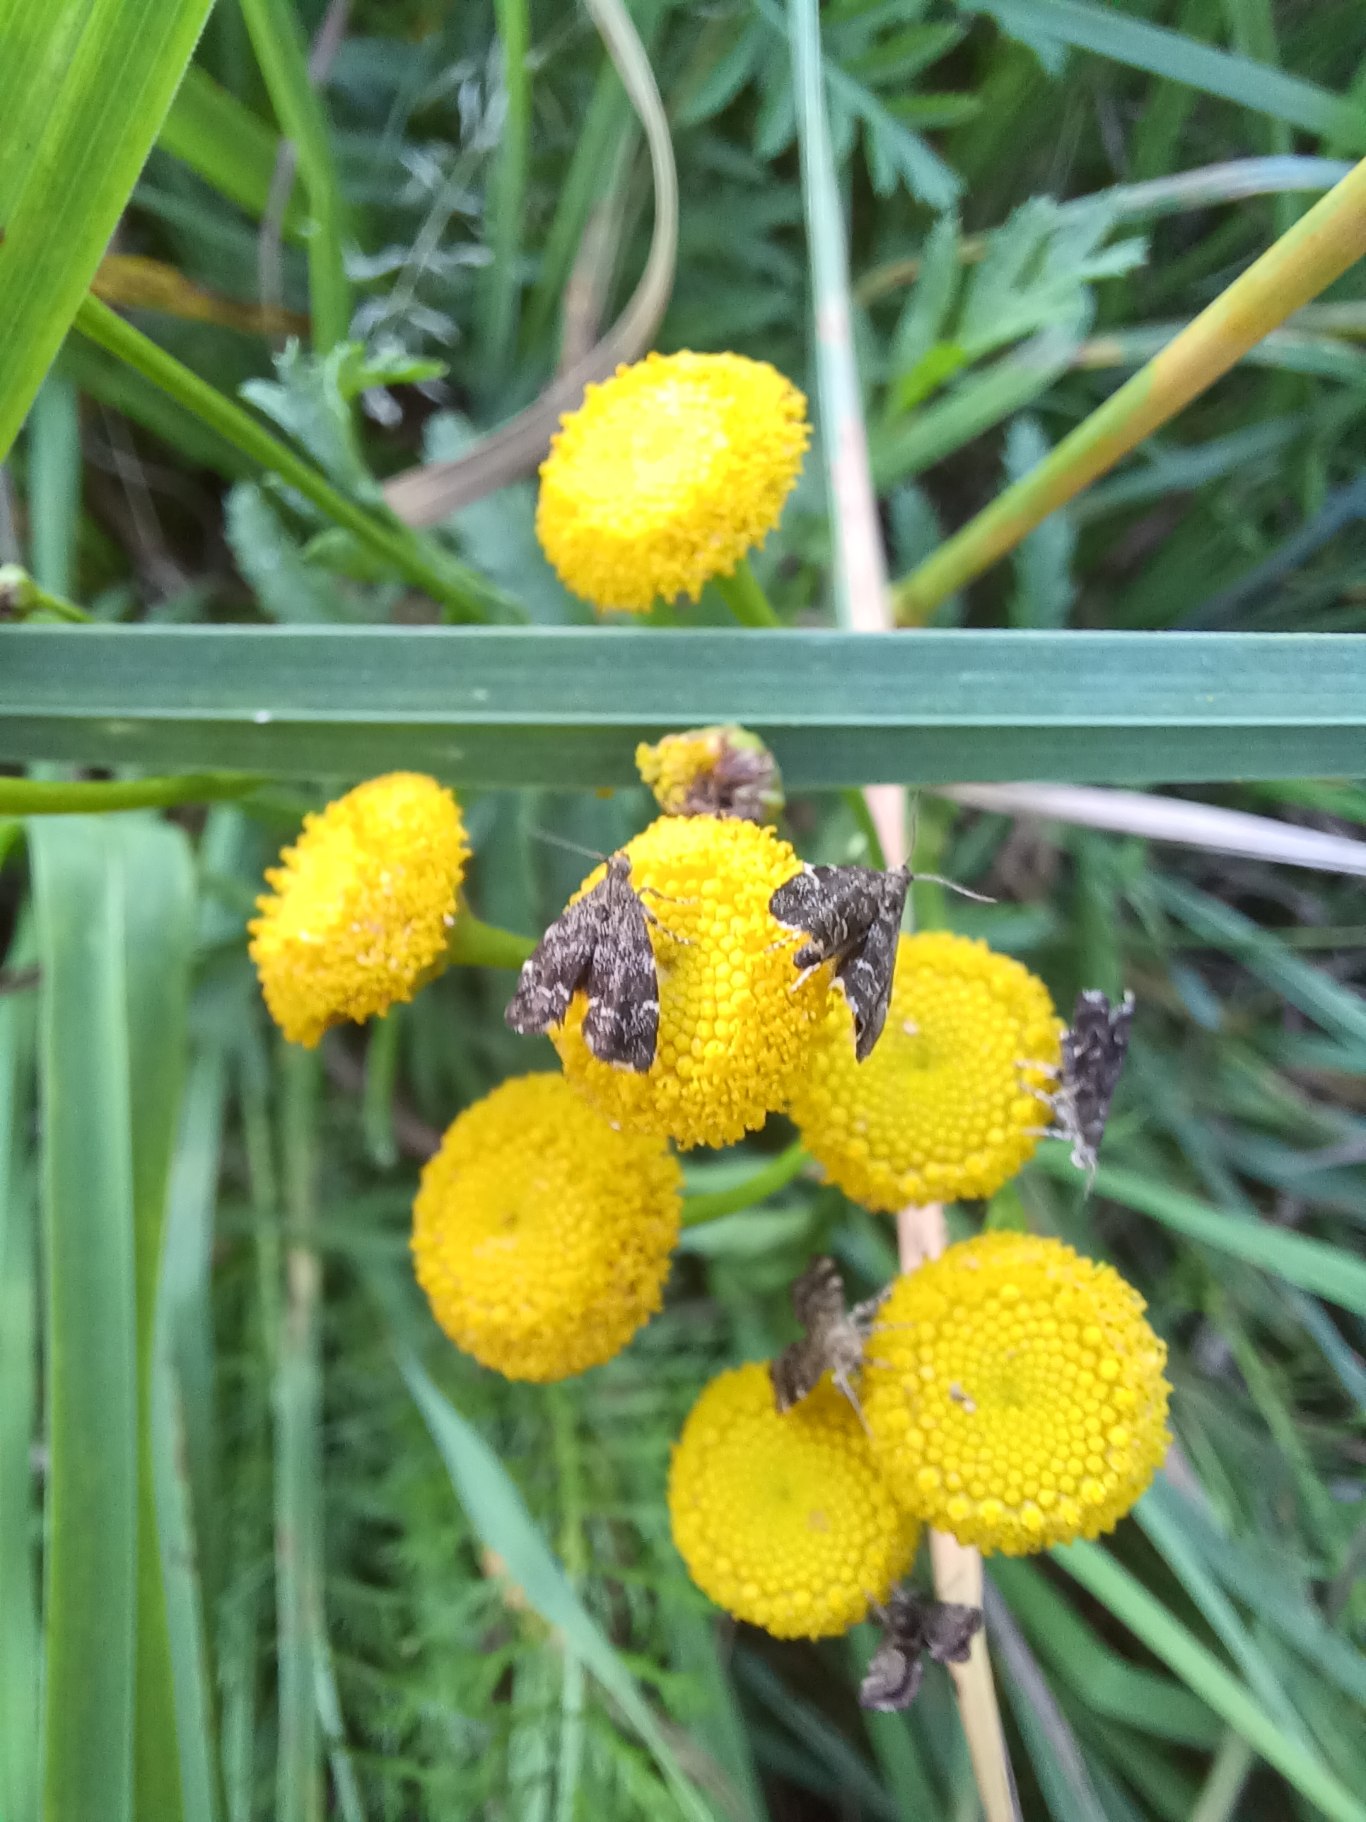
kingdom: Animalia
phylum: Arthropoda
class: Insecta
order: Lepidoptera
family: Choreutidae
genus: Anthophila
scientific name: Anthophila fabriciana
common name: Bredvinget nældevikler
